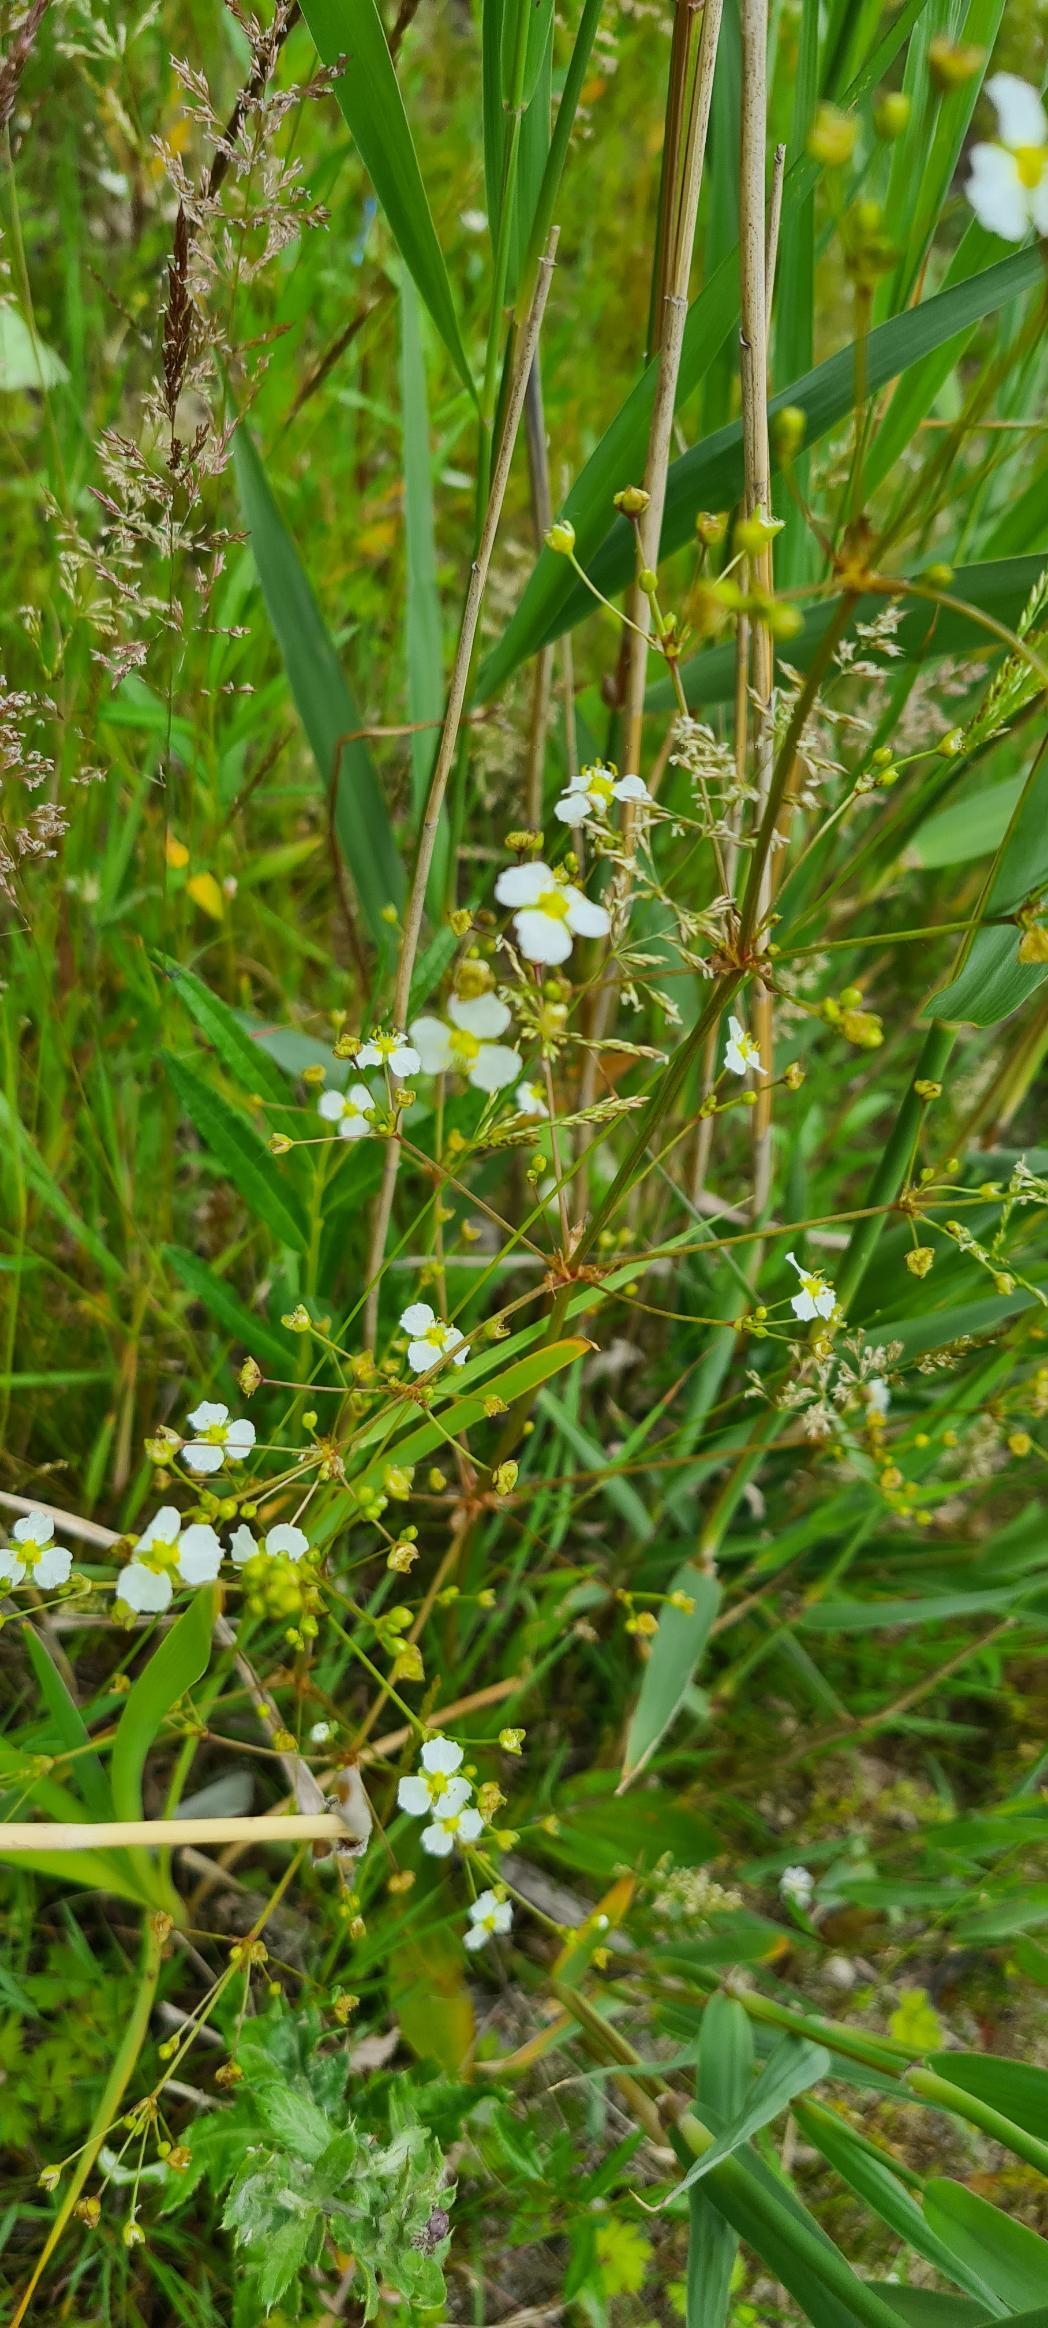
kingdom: Plantae
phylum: Tracheophyta
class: Liliopsida
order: Alismatales
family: Alismataceae
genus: Alisma
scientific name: Alisma plantago-aquatica
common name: Vejbred-skeblad
